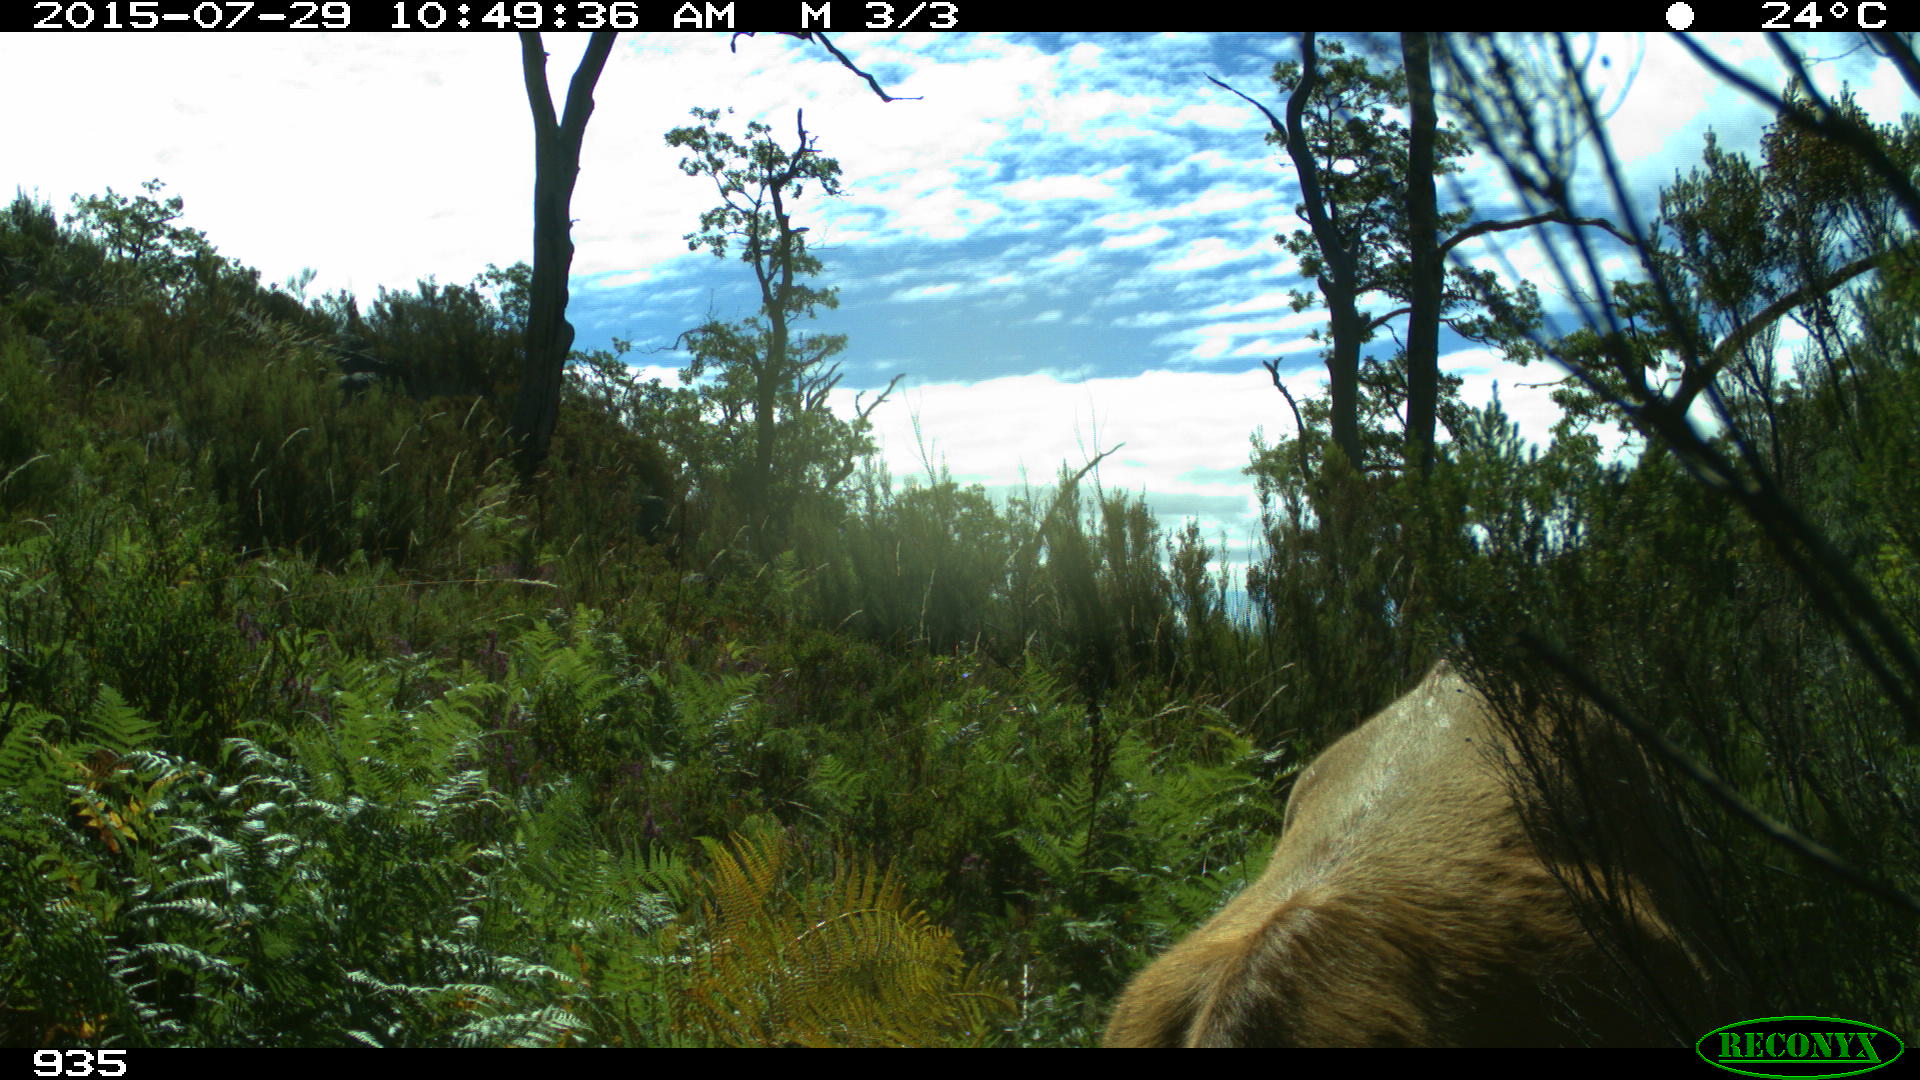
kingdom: Animalia
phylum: Chordata
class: Mammalia
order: Artiodactyla
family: Bovidae
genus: Bos
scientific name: Bos taurus
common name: Domesticated cattle
